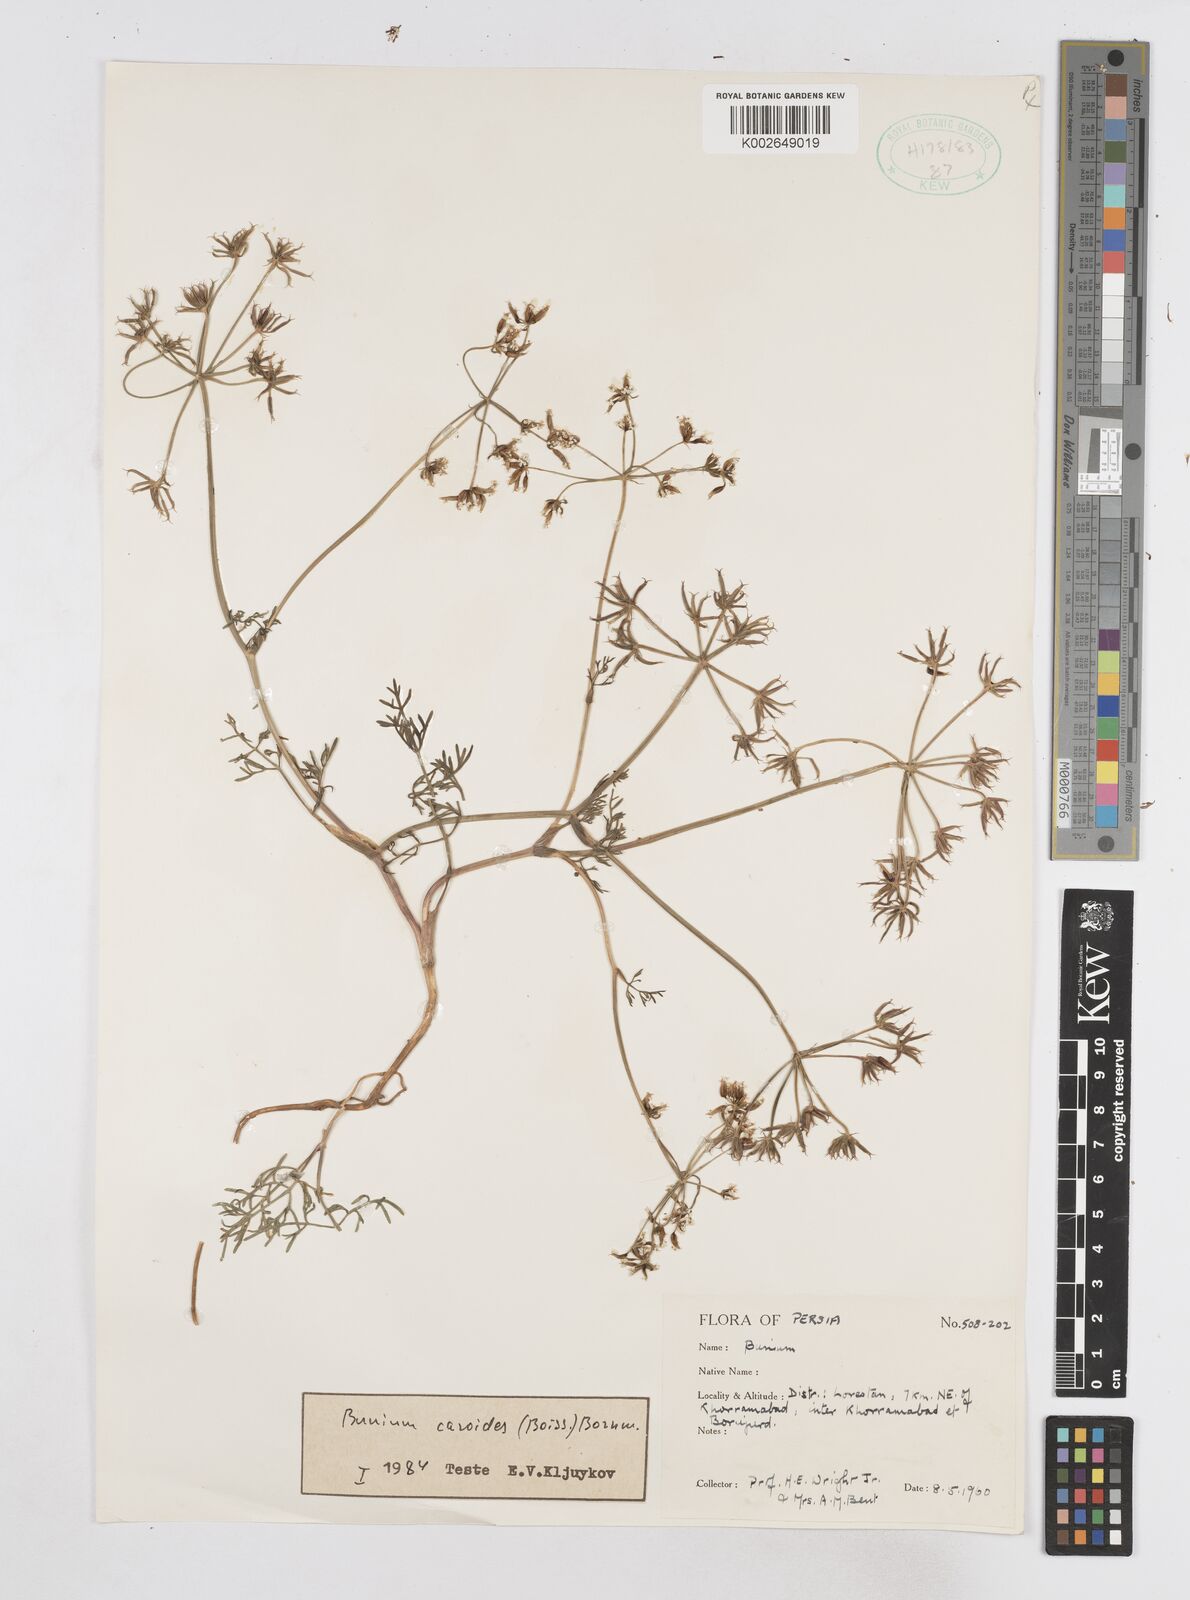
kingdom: Plantae
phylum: Tracheophyta
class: Magnoliopsida
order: Apiales
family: Apiaceae
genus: Elwendia
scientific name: Elwendia caroides
